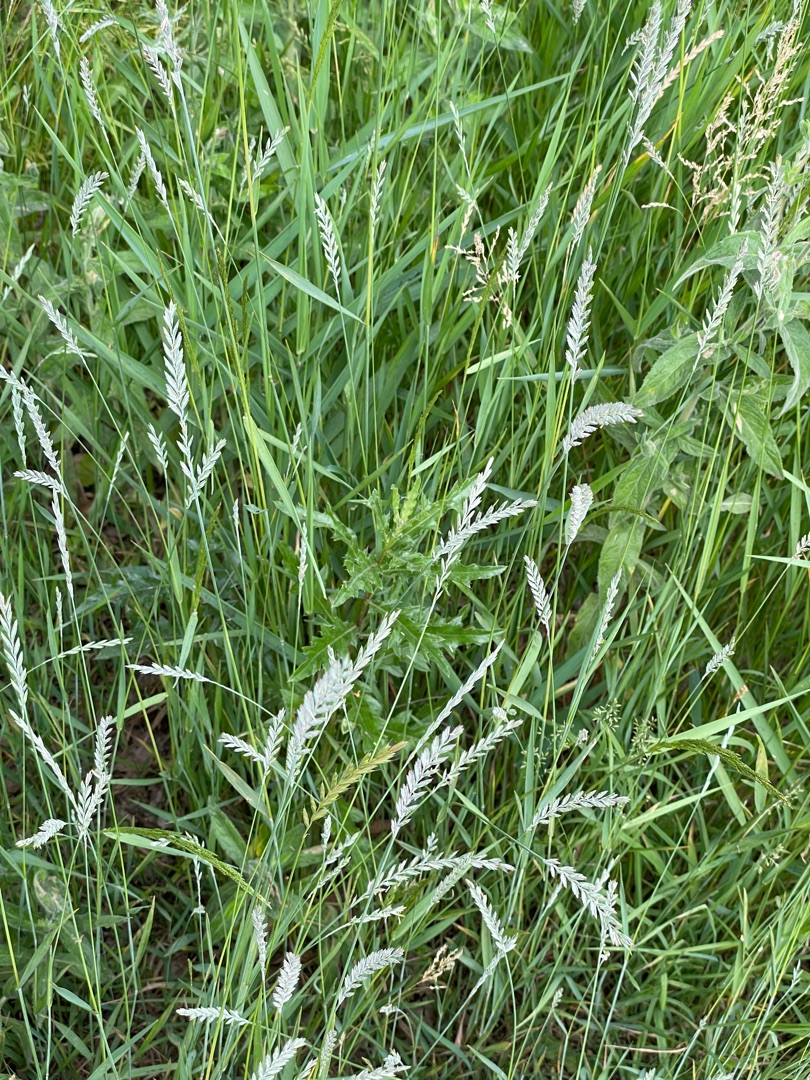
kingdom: Plantae
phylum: Tracheophyta
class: Liliopsida
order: Poales
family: Poaceae
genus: Elymus
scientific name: Elymus repens
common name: Almindelig kvik
